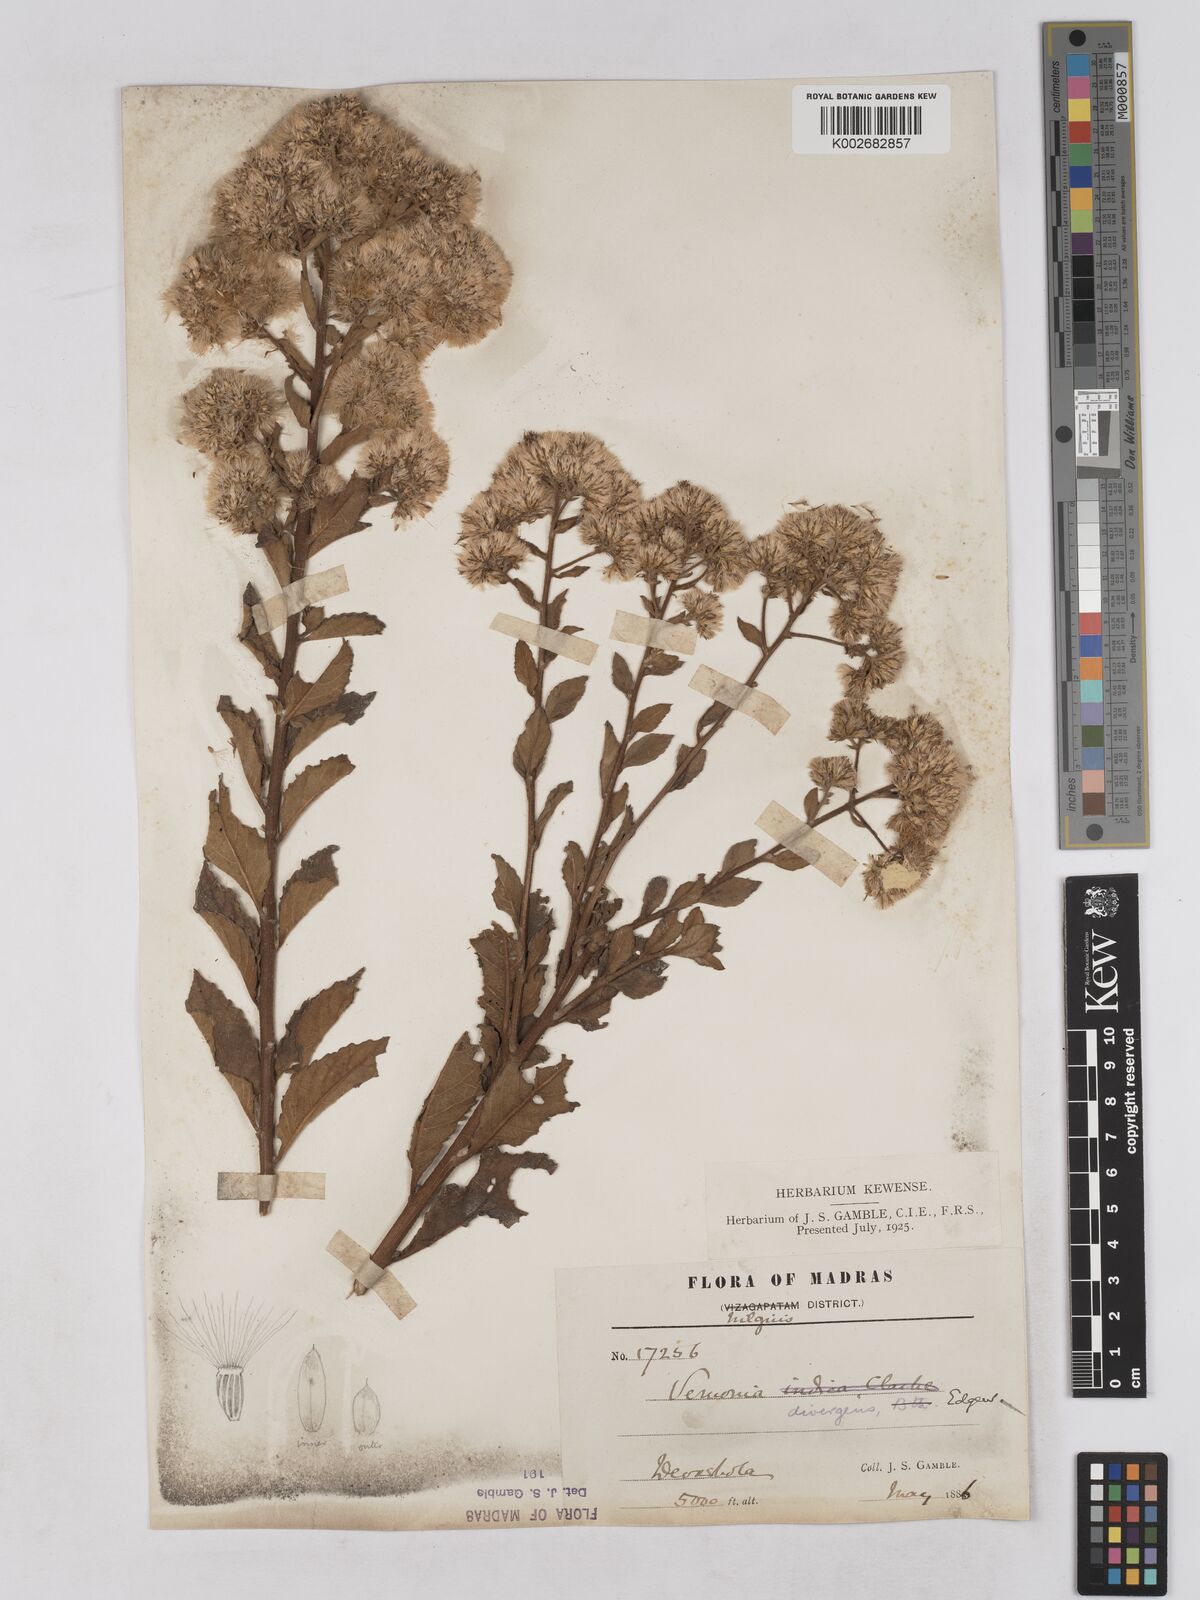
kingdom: Plantae
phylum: Tracheophyta
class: Magnoliopsida
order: Asterales
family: Asteraceae
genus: Acilepis
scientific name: Acilepis divergens
